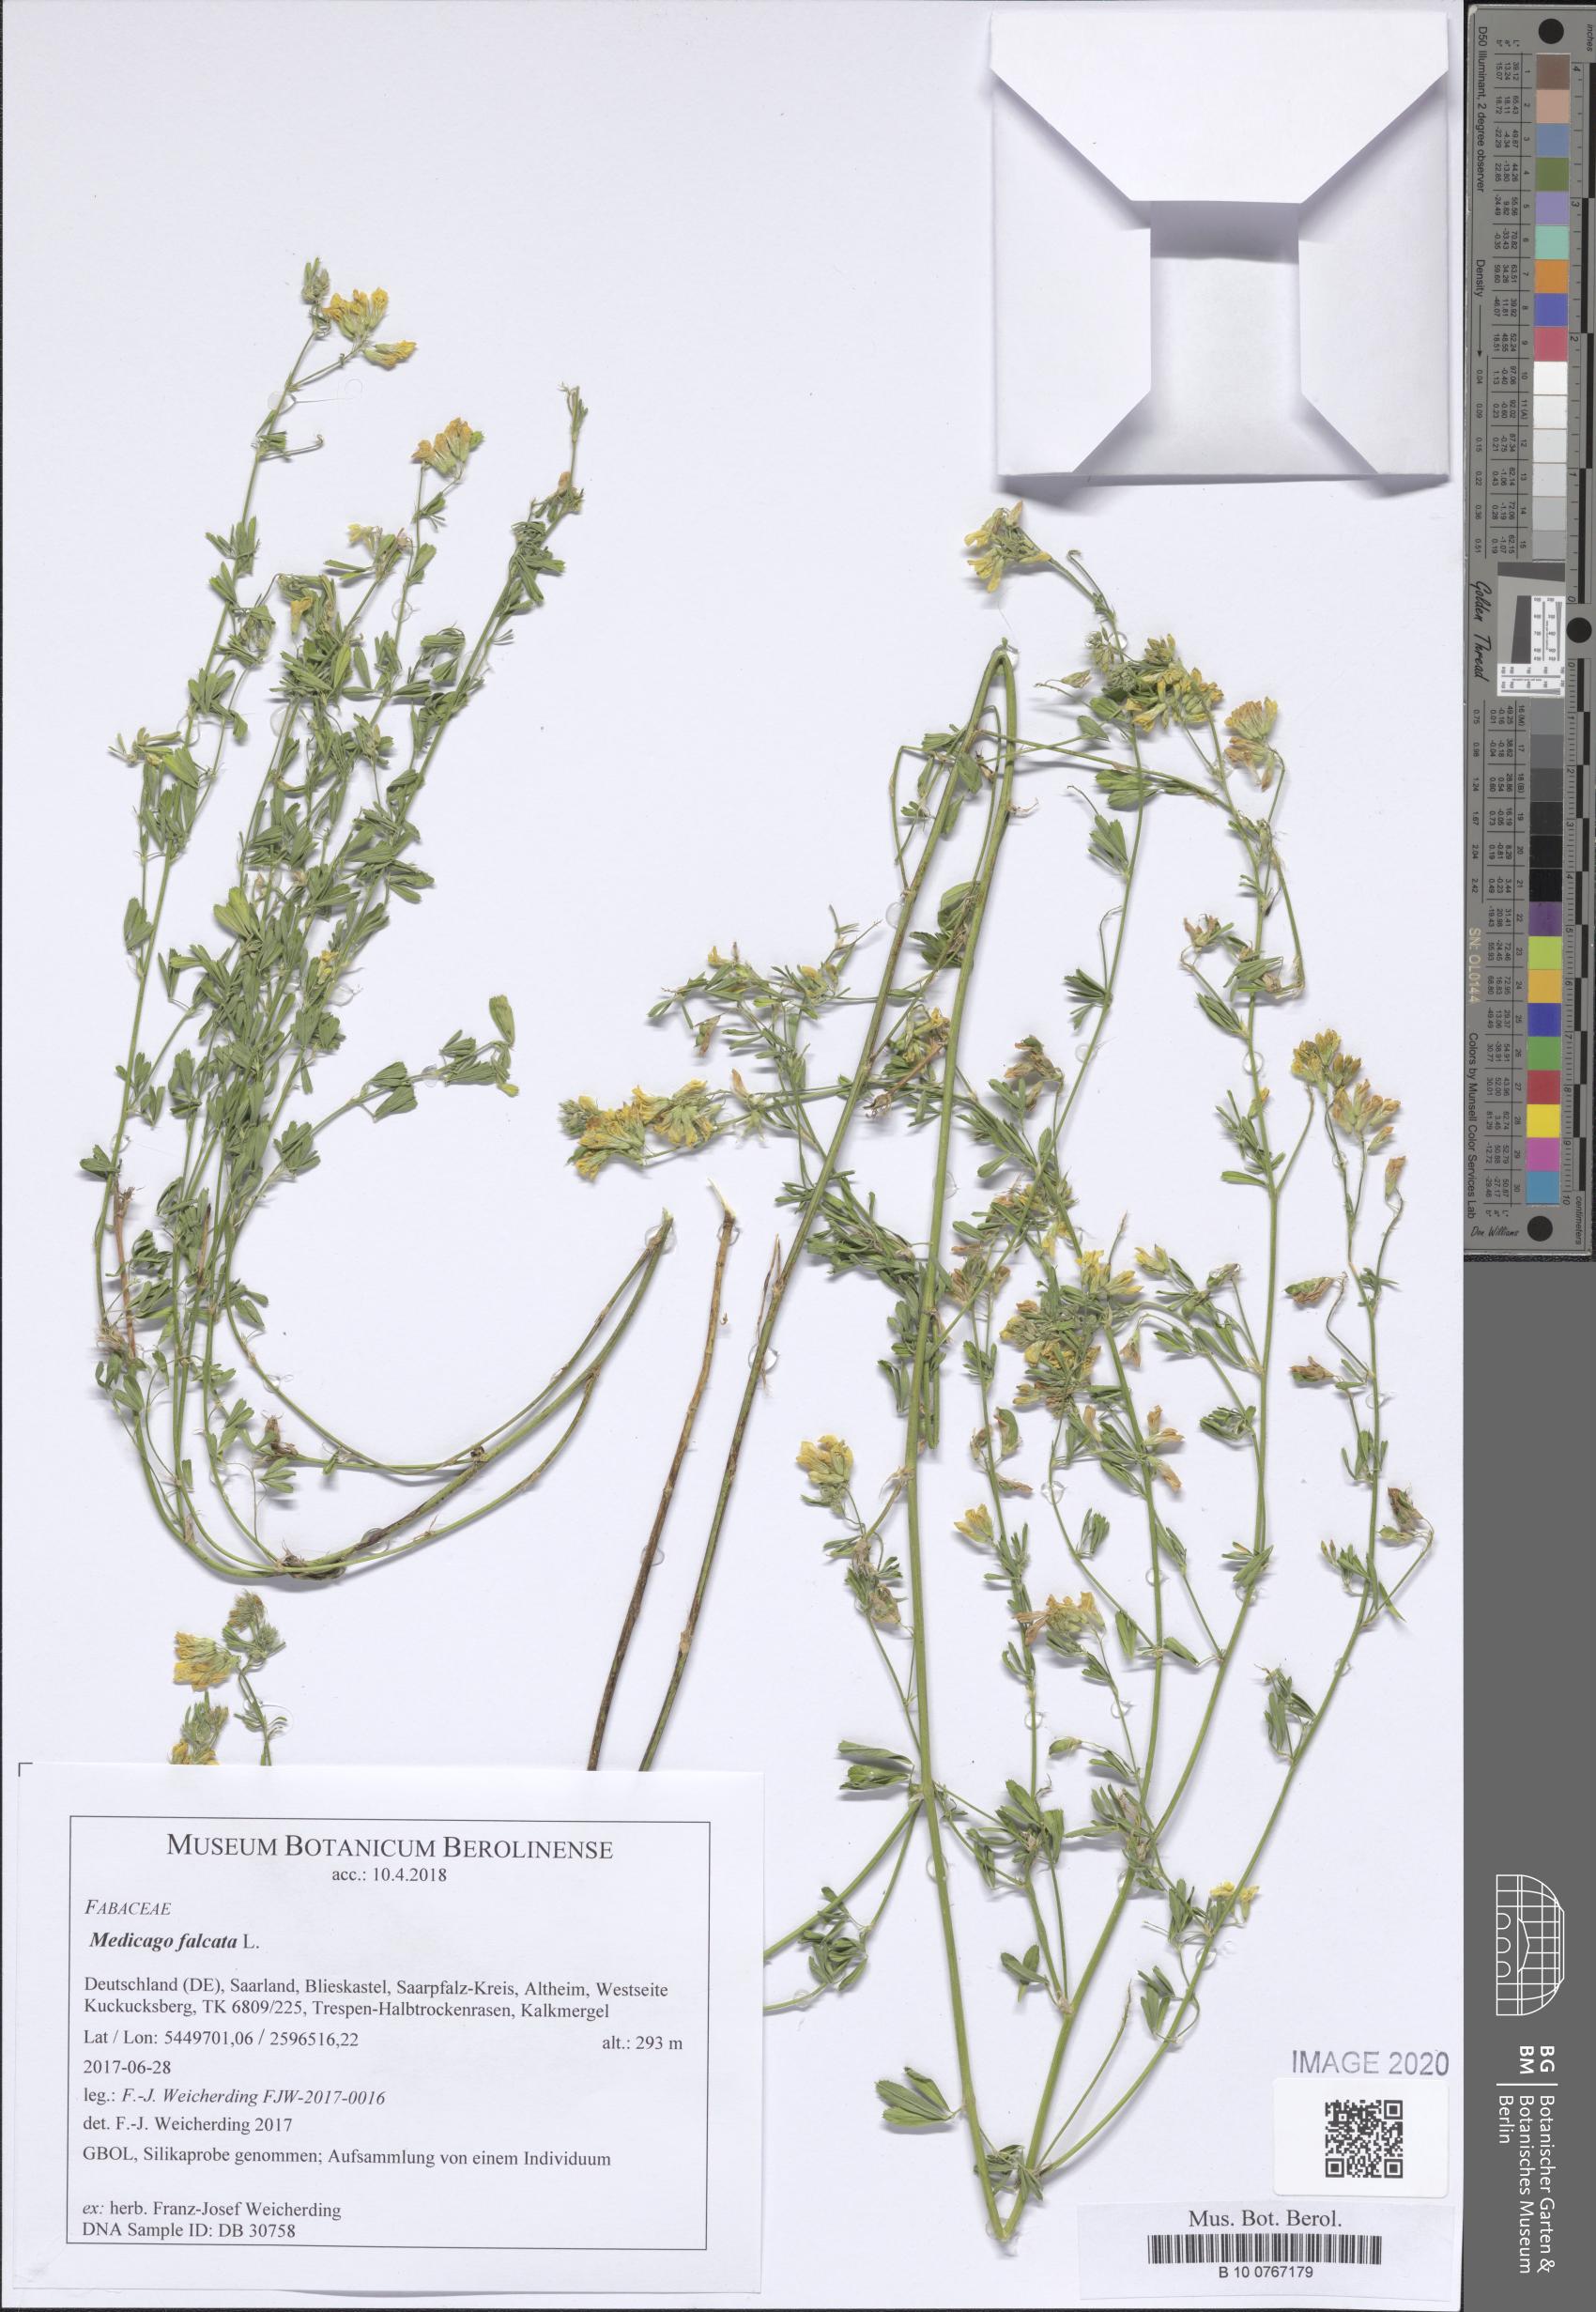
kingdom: Plantae
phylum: Tracheophyta
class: Magnoliopsida
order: Fabales
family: Fabaceae
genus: Medicago
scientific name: Medicago falcata
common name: Sickle medick
